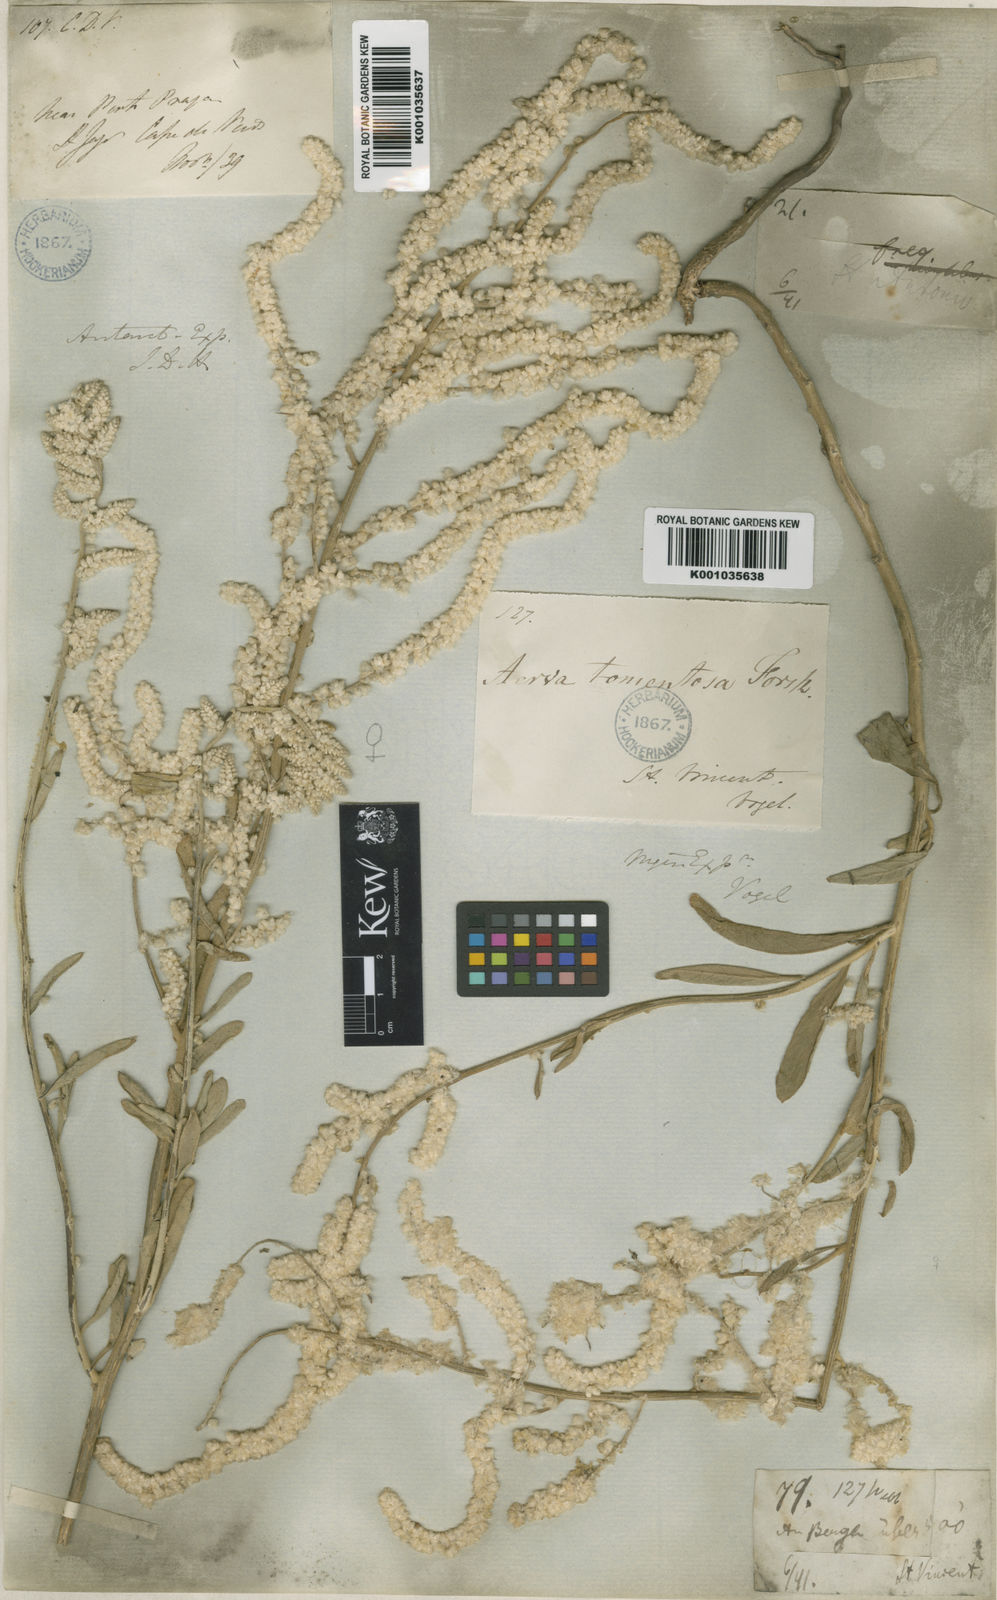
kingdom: Plantae
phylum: Tracheophyta
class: Magnoliopsida
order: Caryophyllales
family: Amaranthaceae
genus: Aerva
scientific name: Aerva
